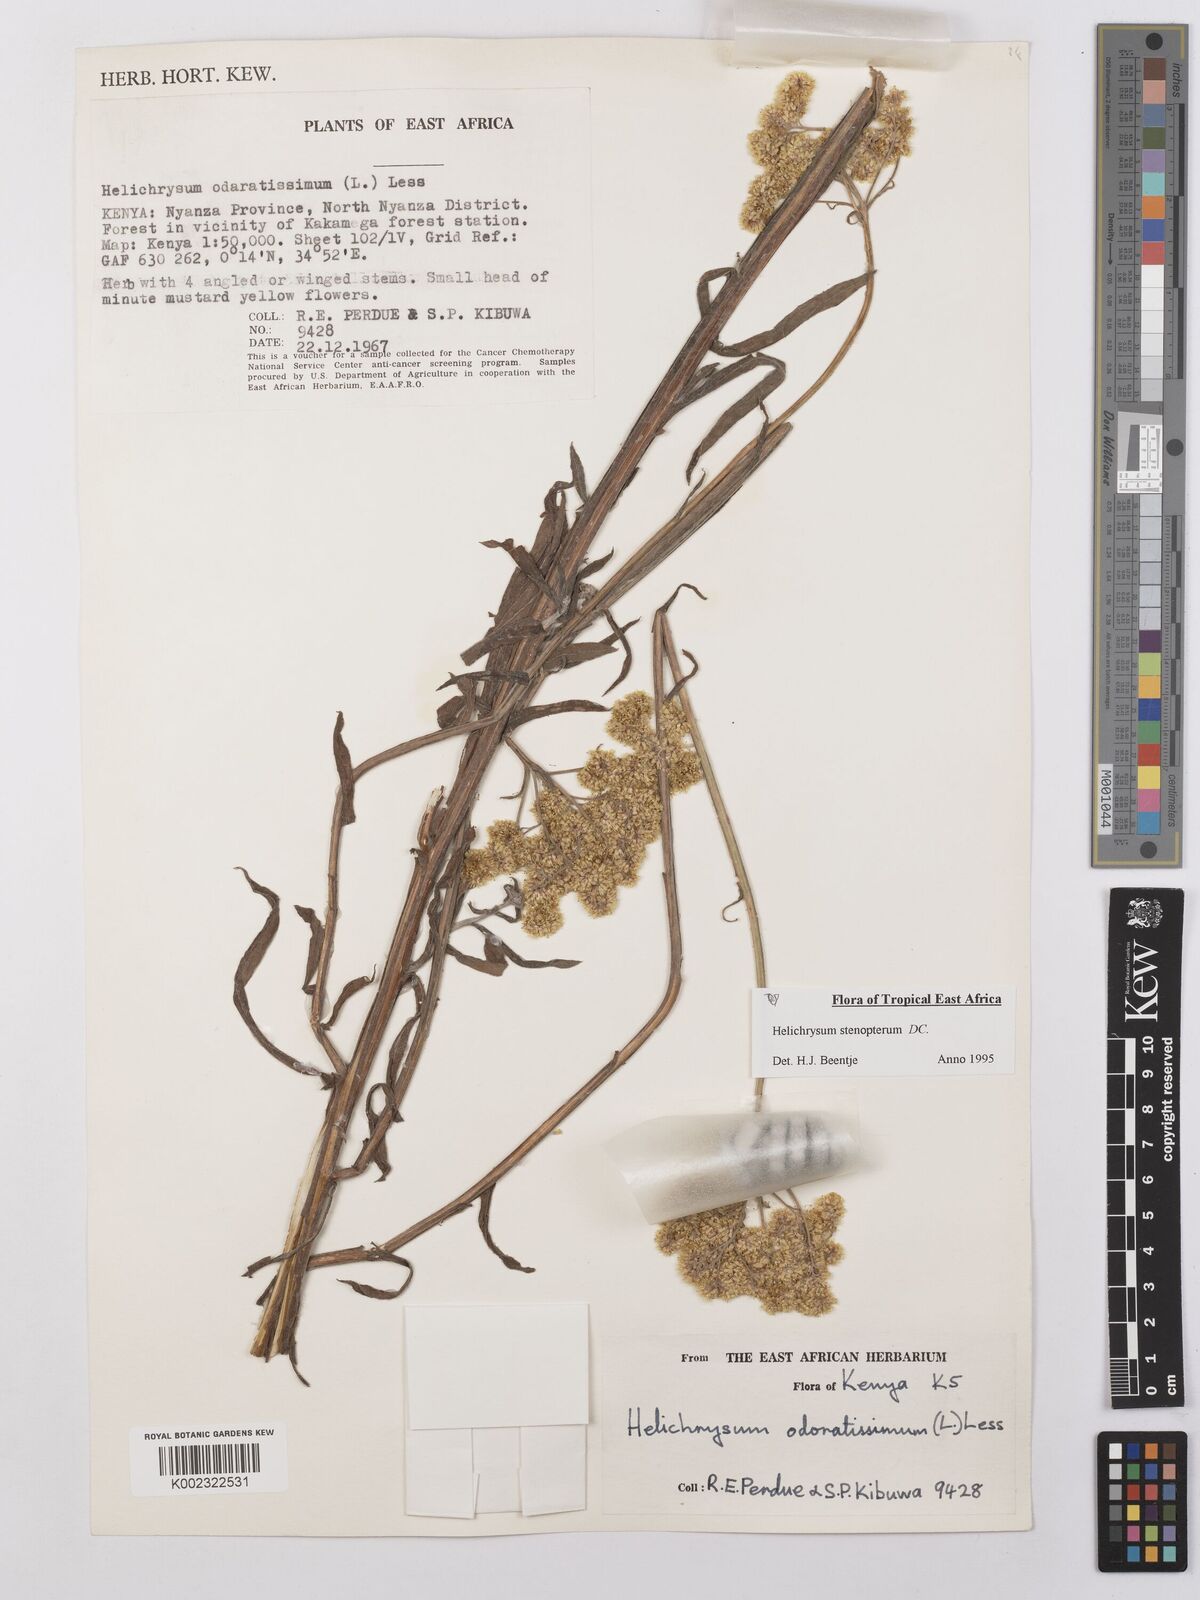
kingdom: Plantae
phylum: Tracheophyta
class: Magnoliopsida
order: Asterales
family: Asteraceae
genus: Helichrysum
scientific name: Helichrysum stenopterum
